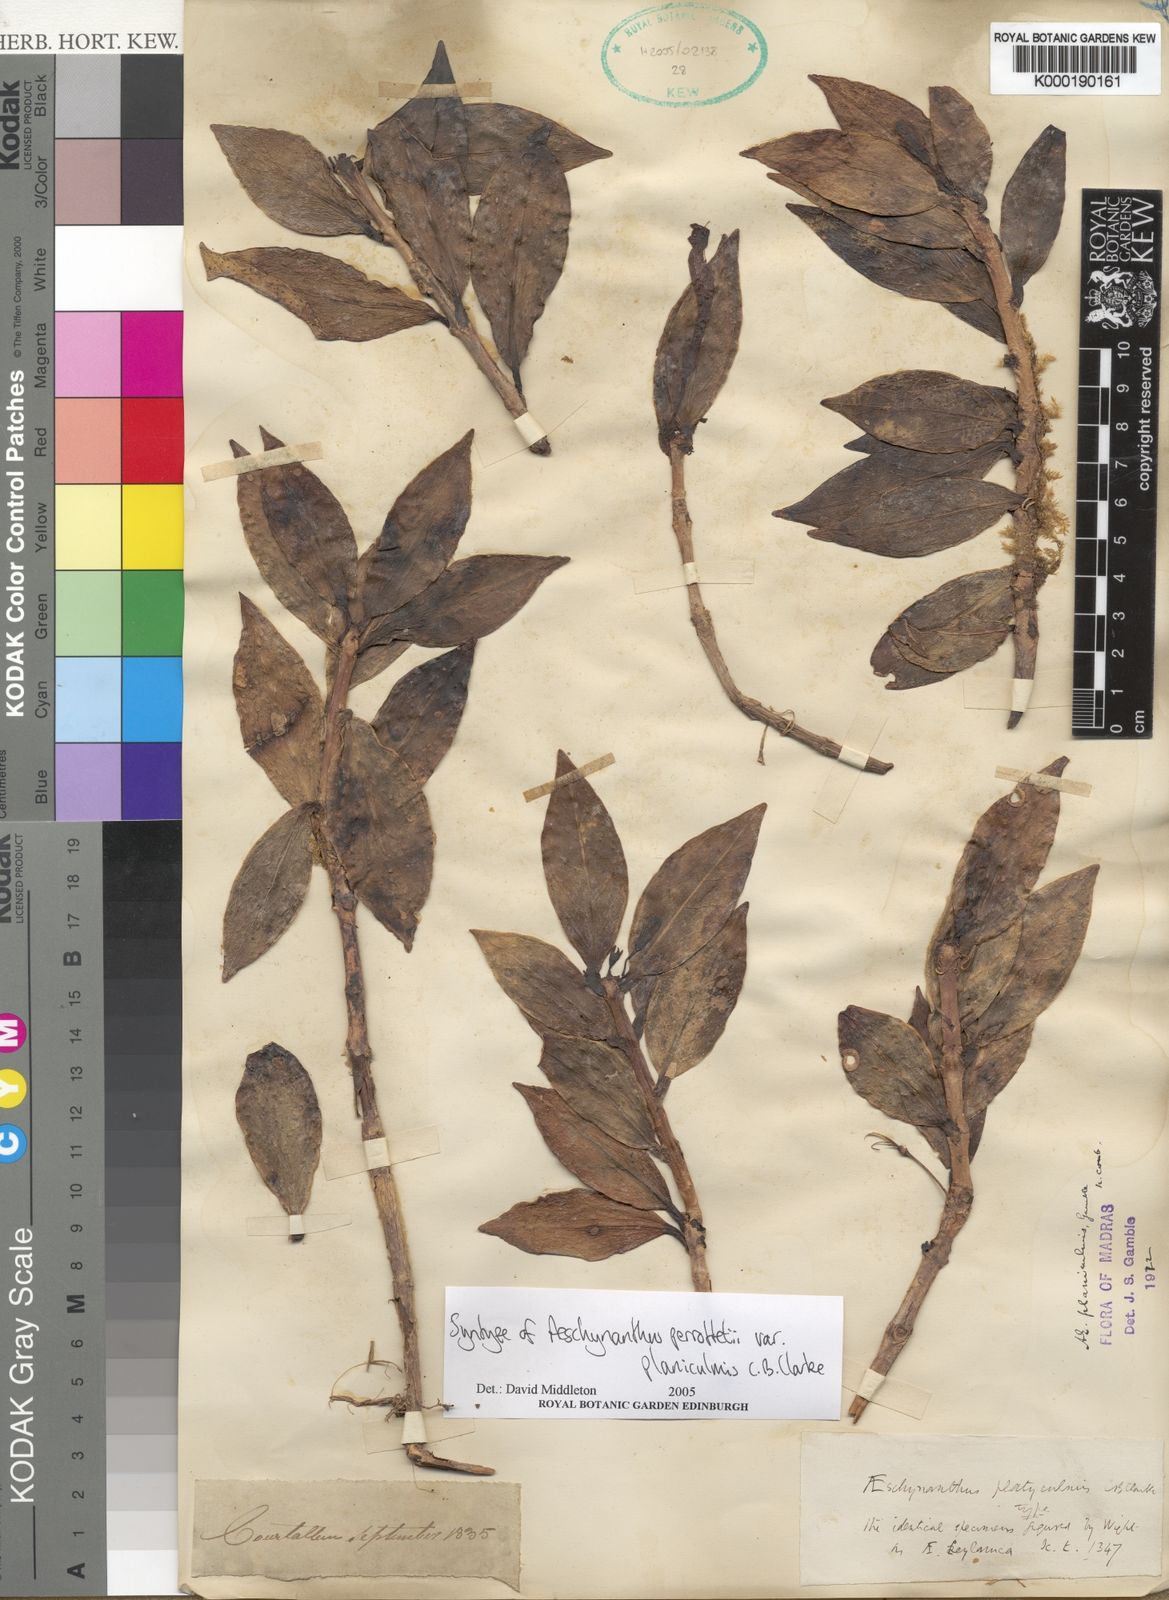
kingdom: Plantae
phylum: Tracheophyta
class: Magnoliopsida
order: Lamiales
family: Gesneriaceae
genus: Aeschynanthus
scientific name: Aeschynanthus perrottetii
